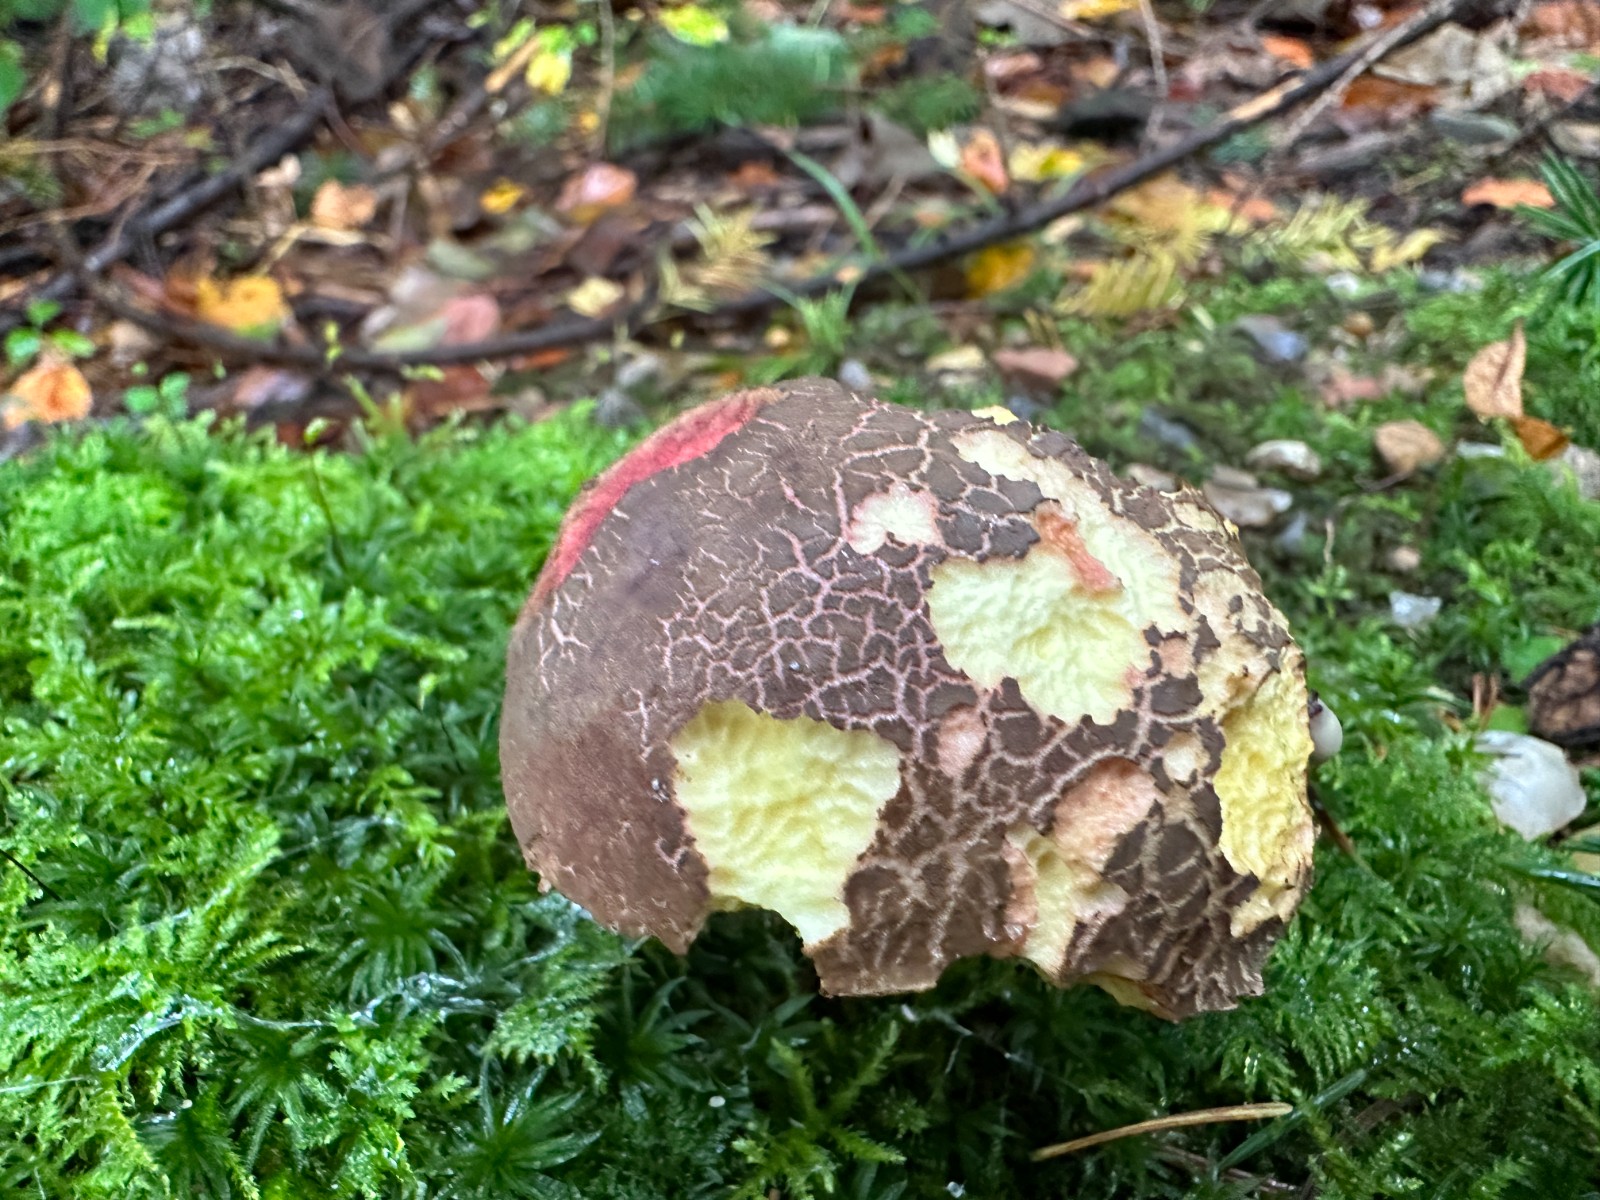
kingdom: Fungi
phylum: Basidiomycota
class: Agaricomycetes
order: Boletales
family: Boletaceae
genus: Xerocomellus
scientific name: Xerocomellus chrysenteron
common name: rødsprukken rørhat
